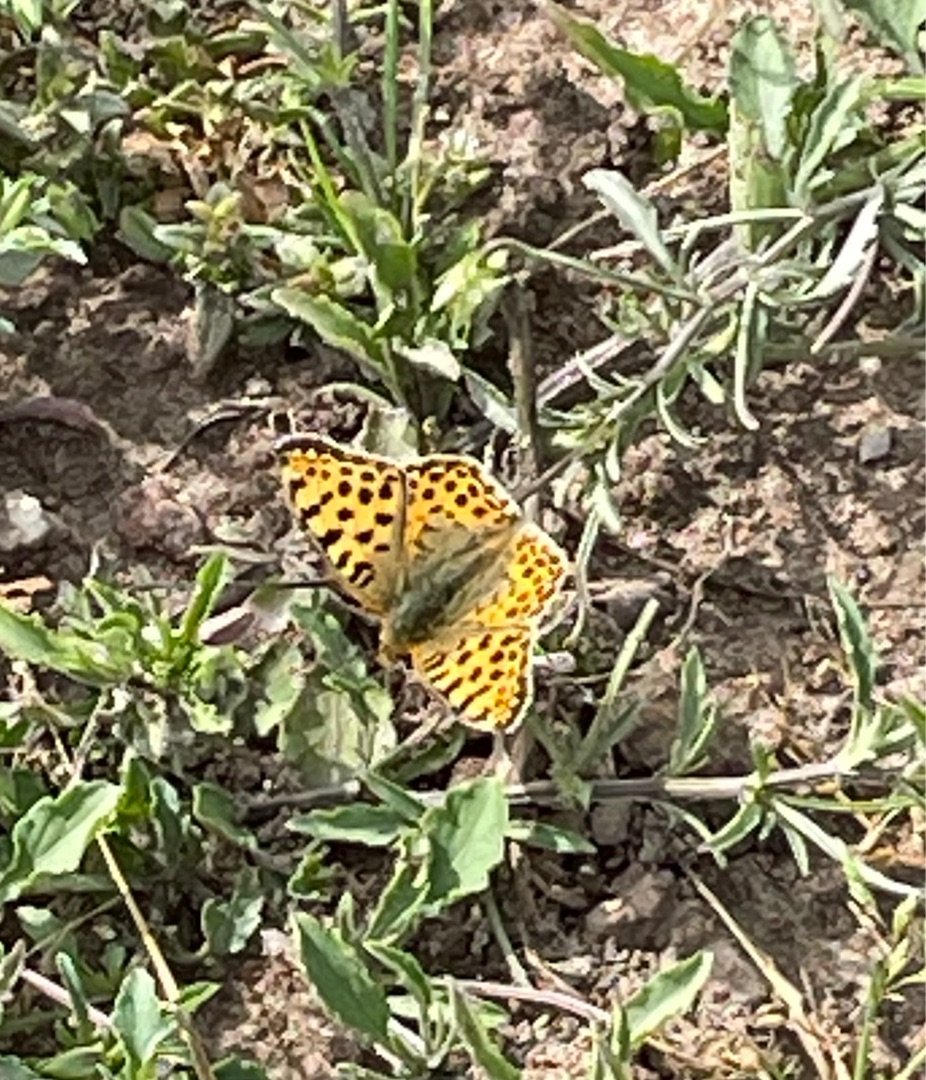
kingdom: Animalia
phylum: Arthropoda
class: Insecta
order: Lepidoptera
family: Nymphalidae
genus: Issoria
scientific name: Issoria lathonia
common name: Storplettet perlemorsommerfugl
